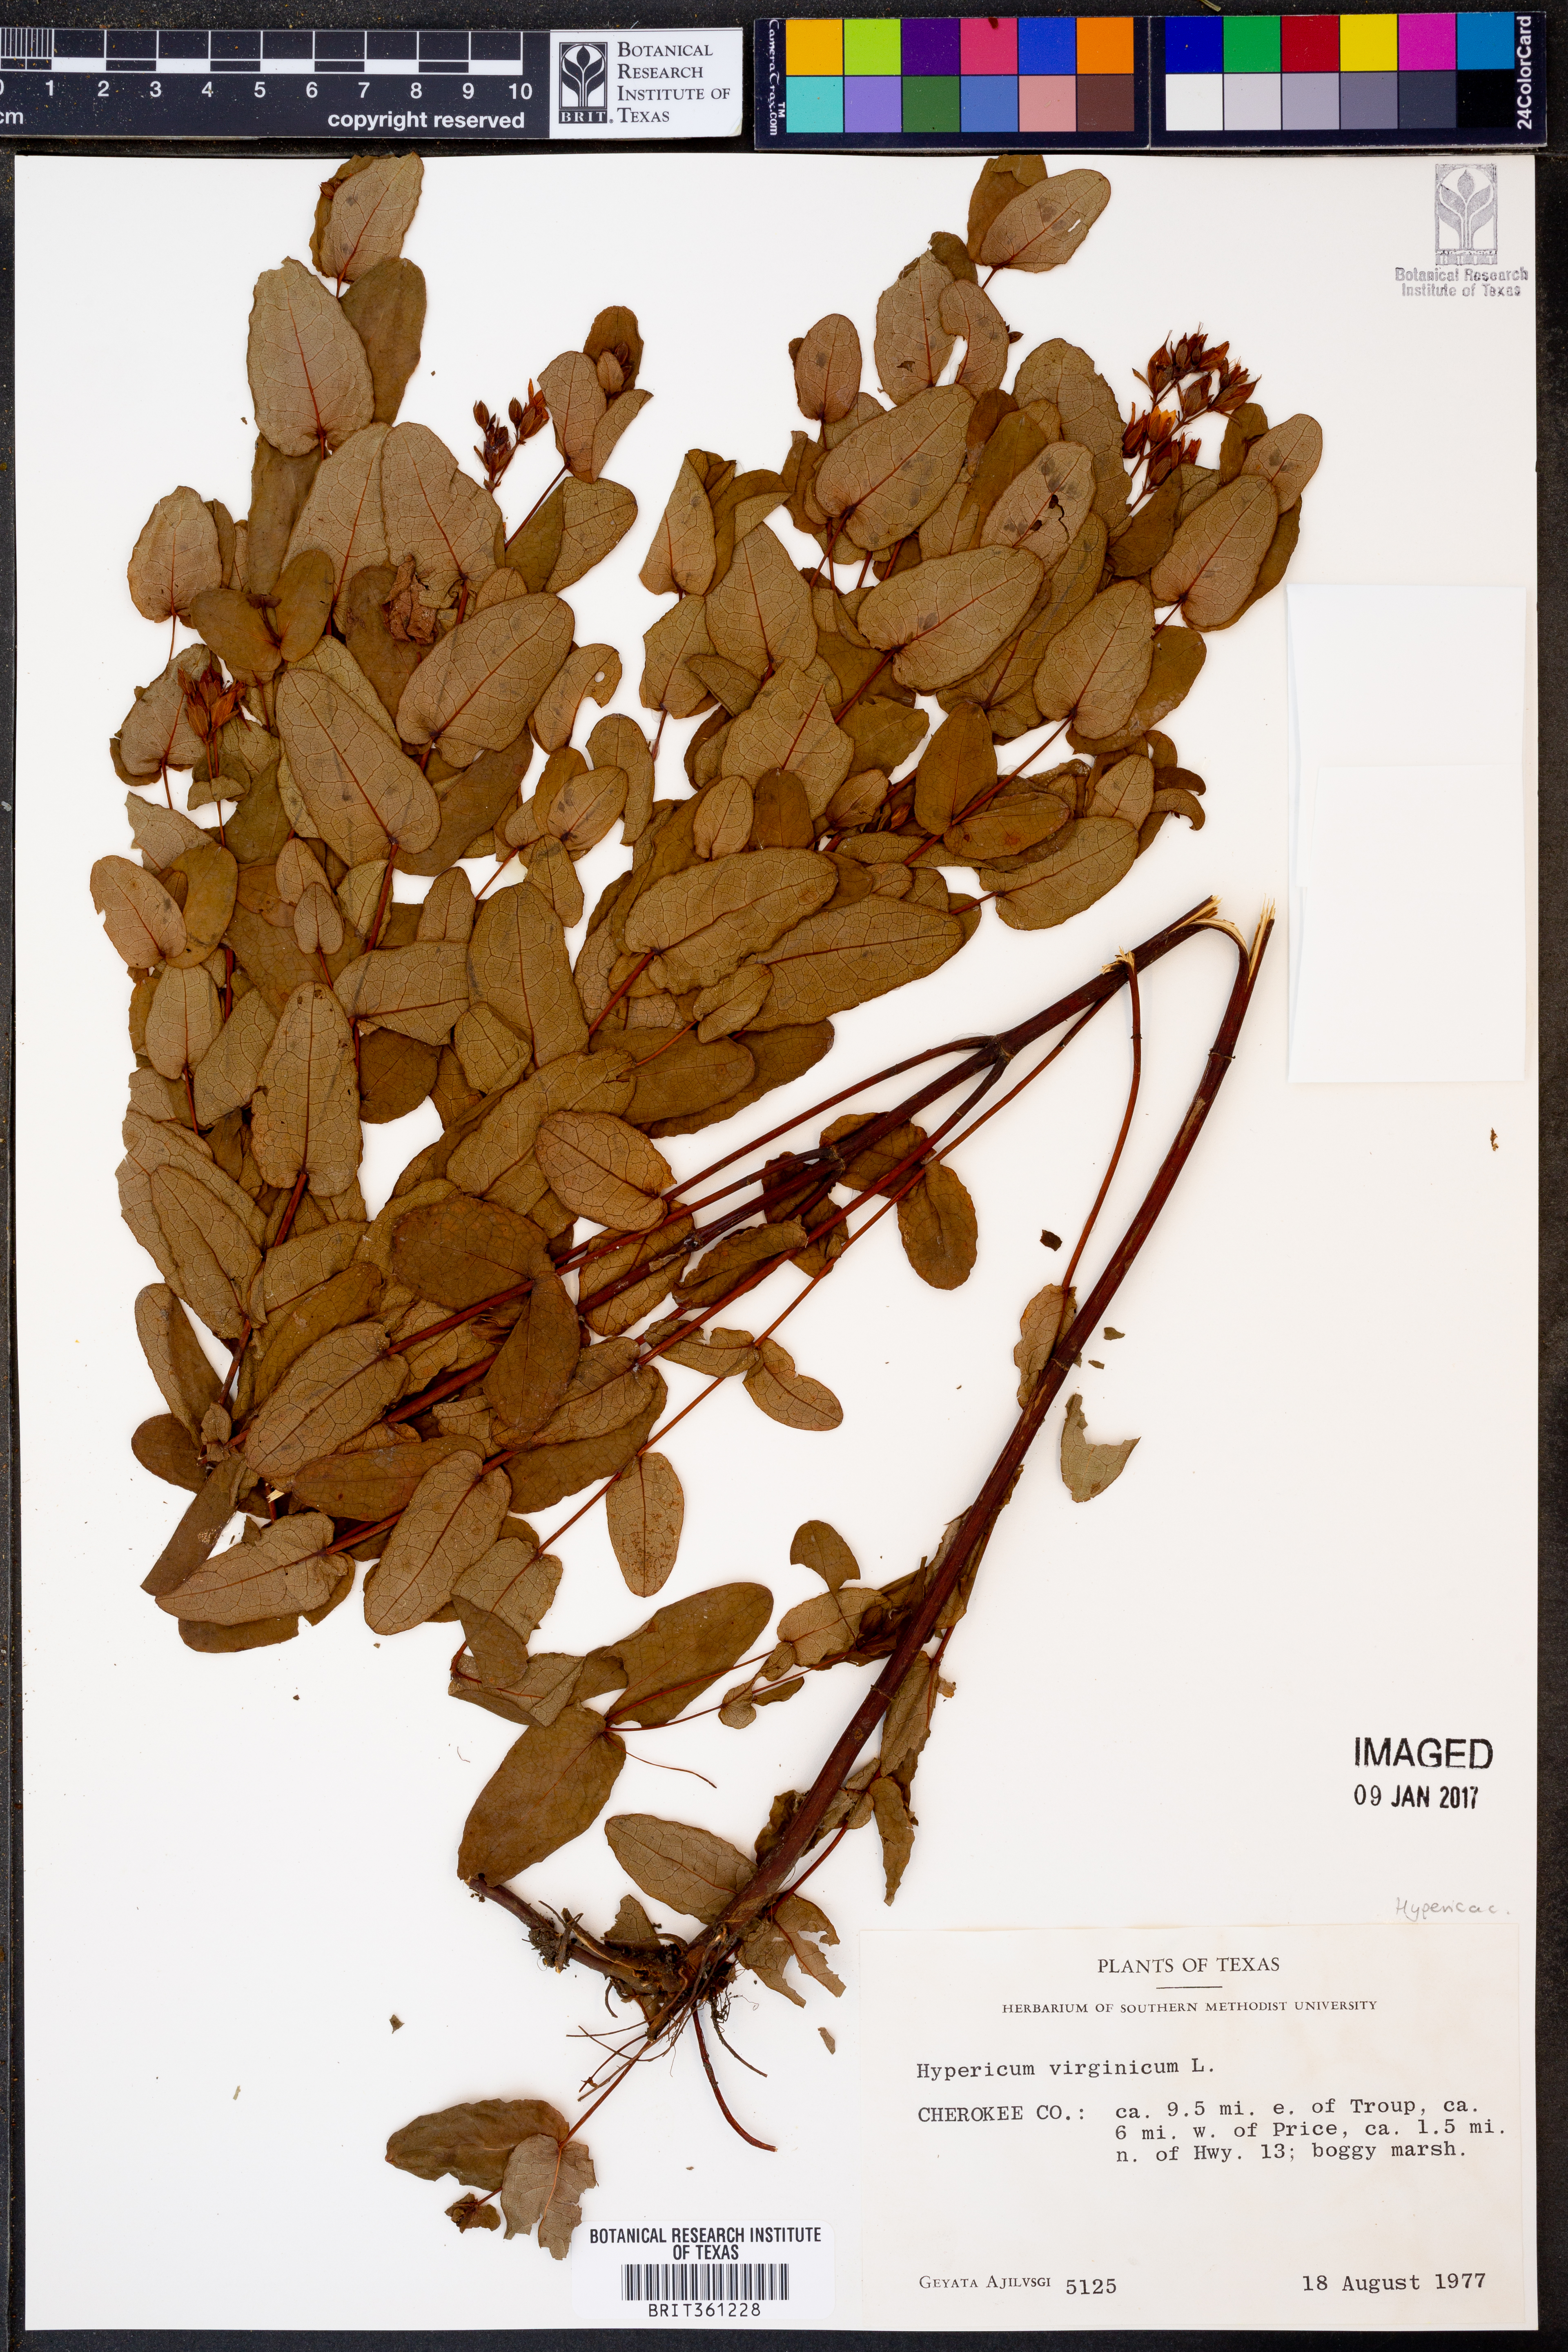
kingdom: Plantae
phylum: Tracheophyta
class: Magnoliopsida
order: Malpighiales
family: Hypericaceae
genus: Triadenum
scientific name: Triadenum virginicum
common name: Marsh st. john's-wort
